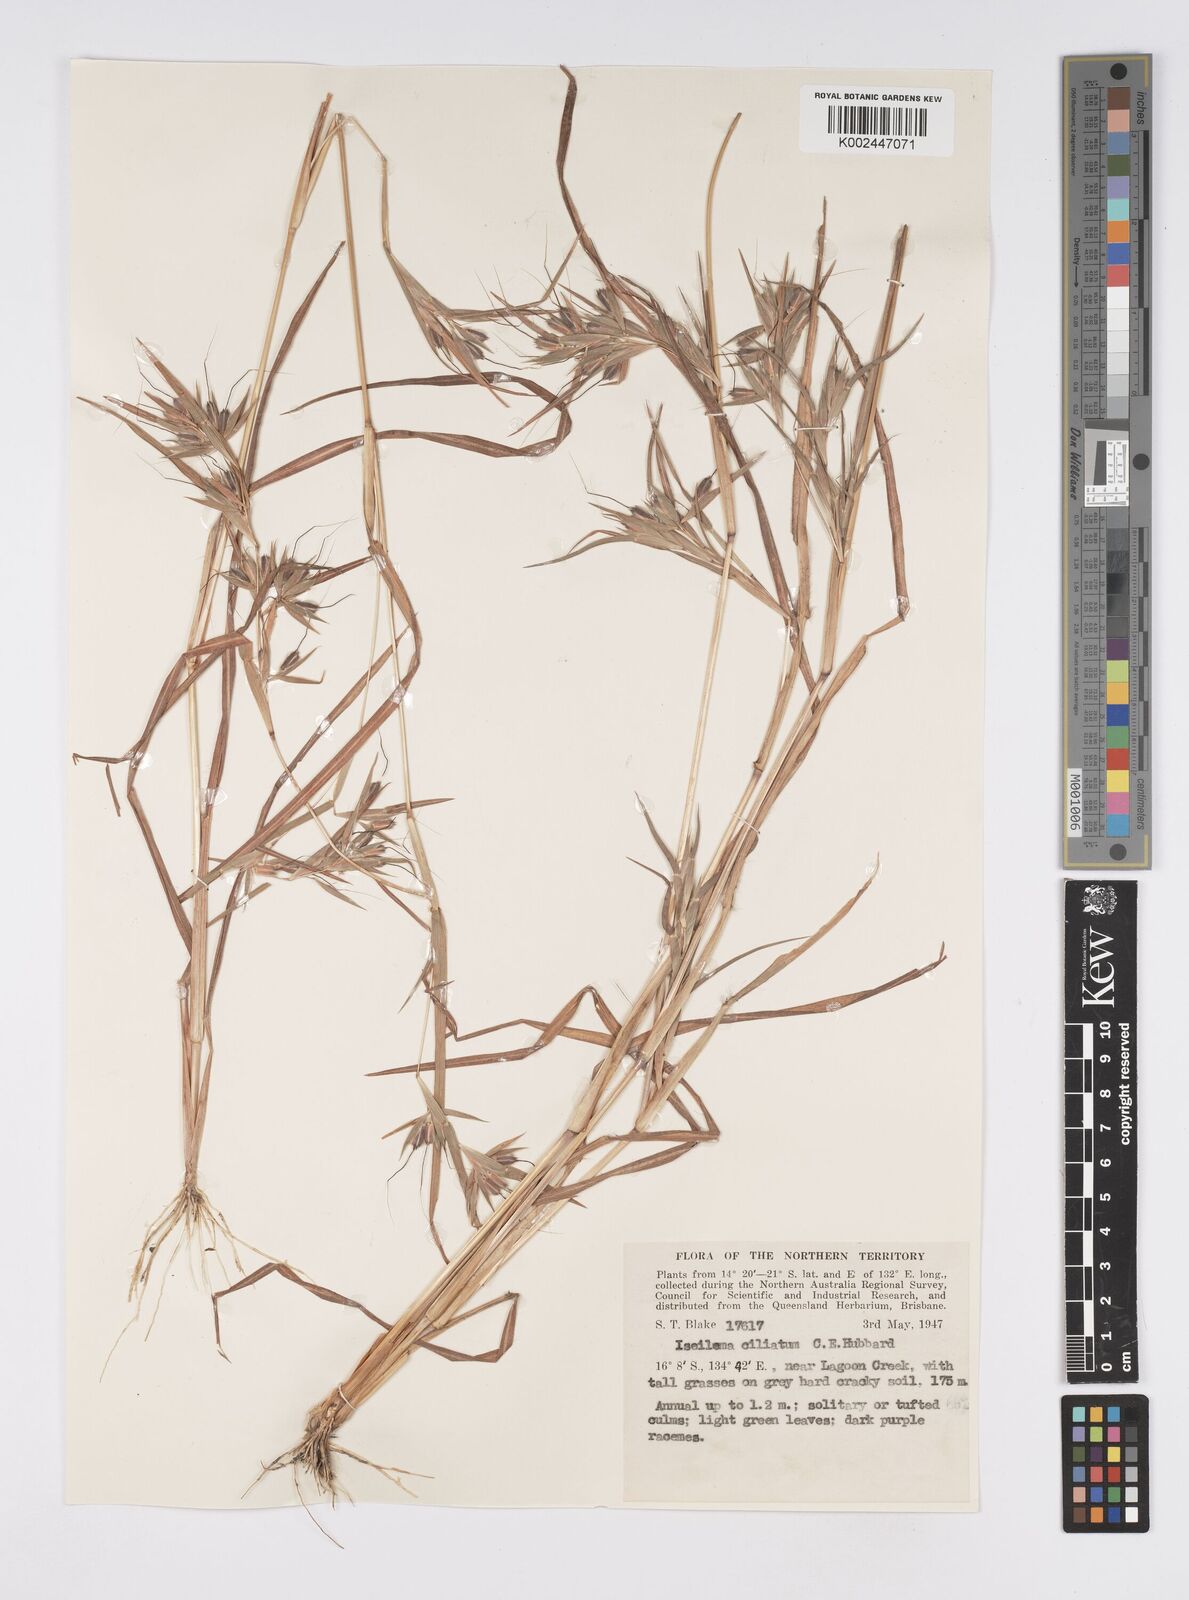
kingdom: Plantae
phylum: Tracheophyta
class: Liliopsida
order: Poales
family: Poaceae
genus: Iseilema
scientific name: Iseilema ciliatum
